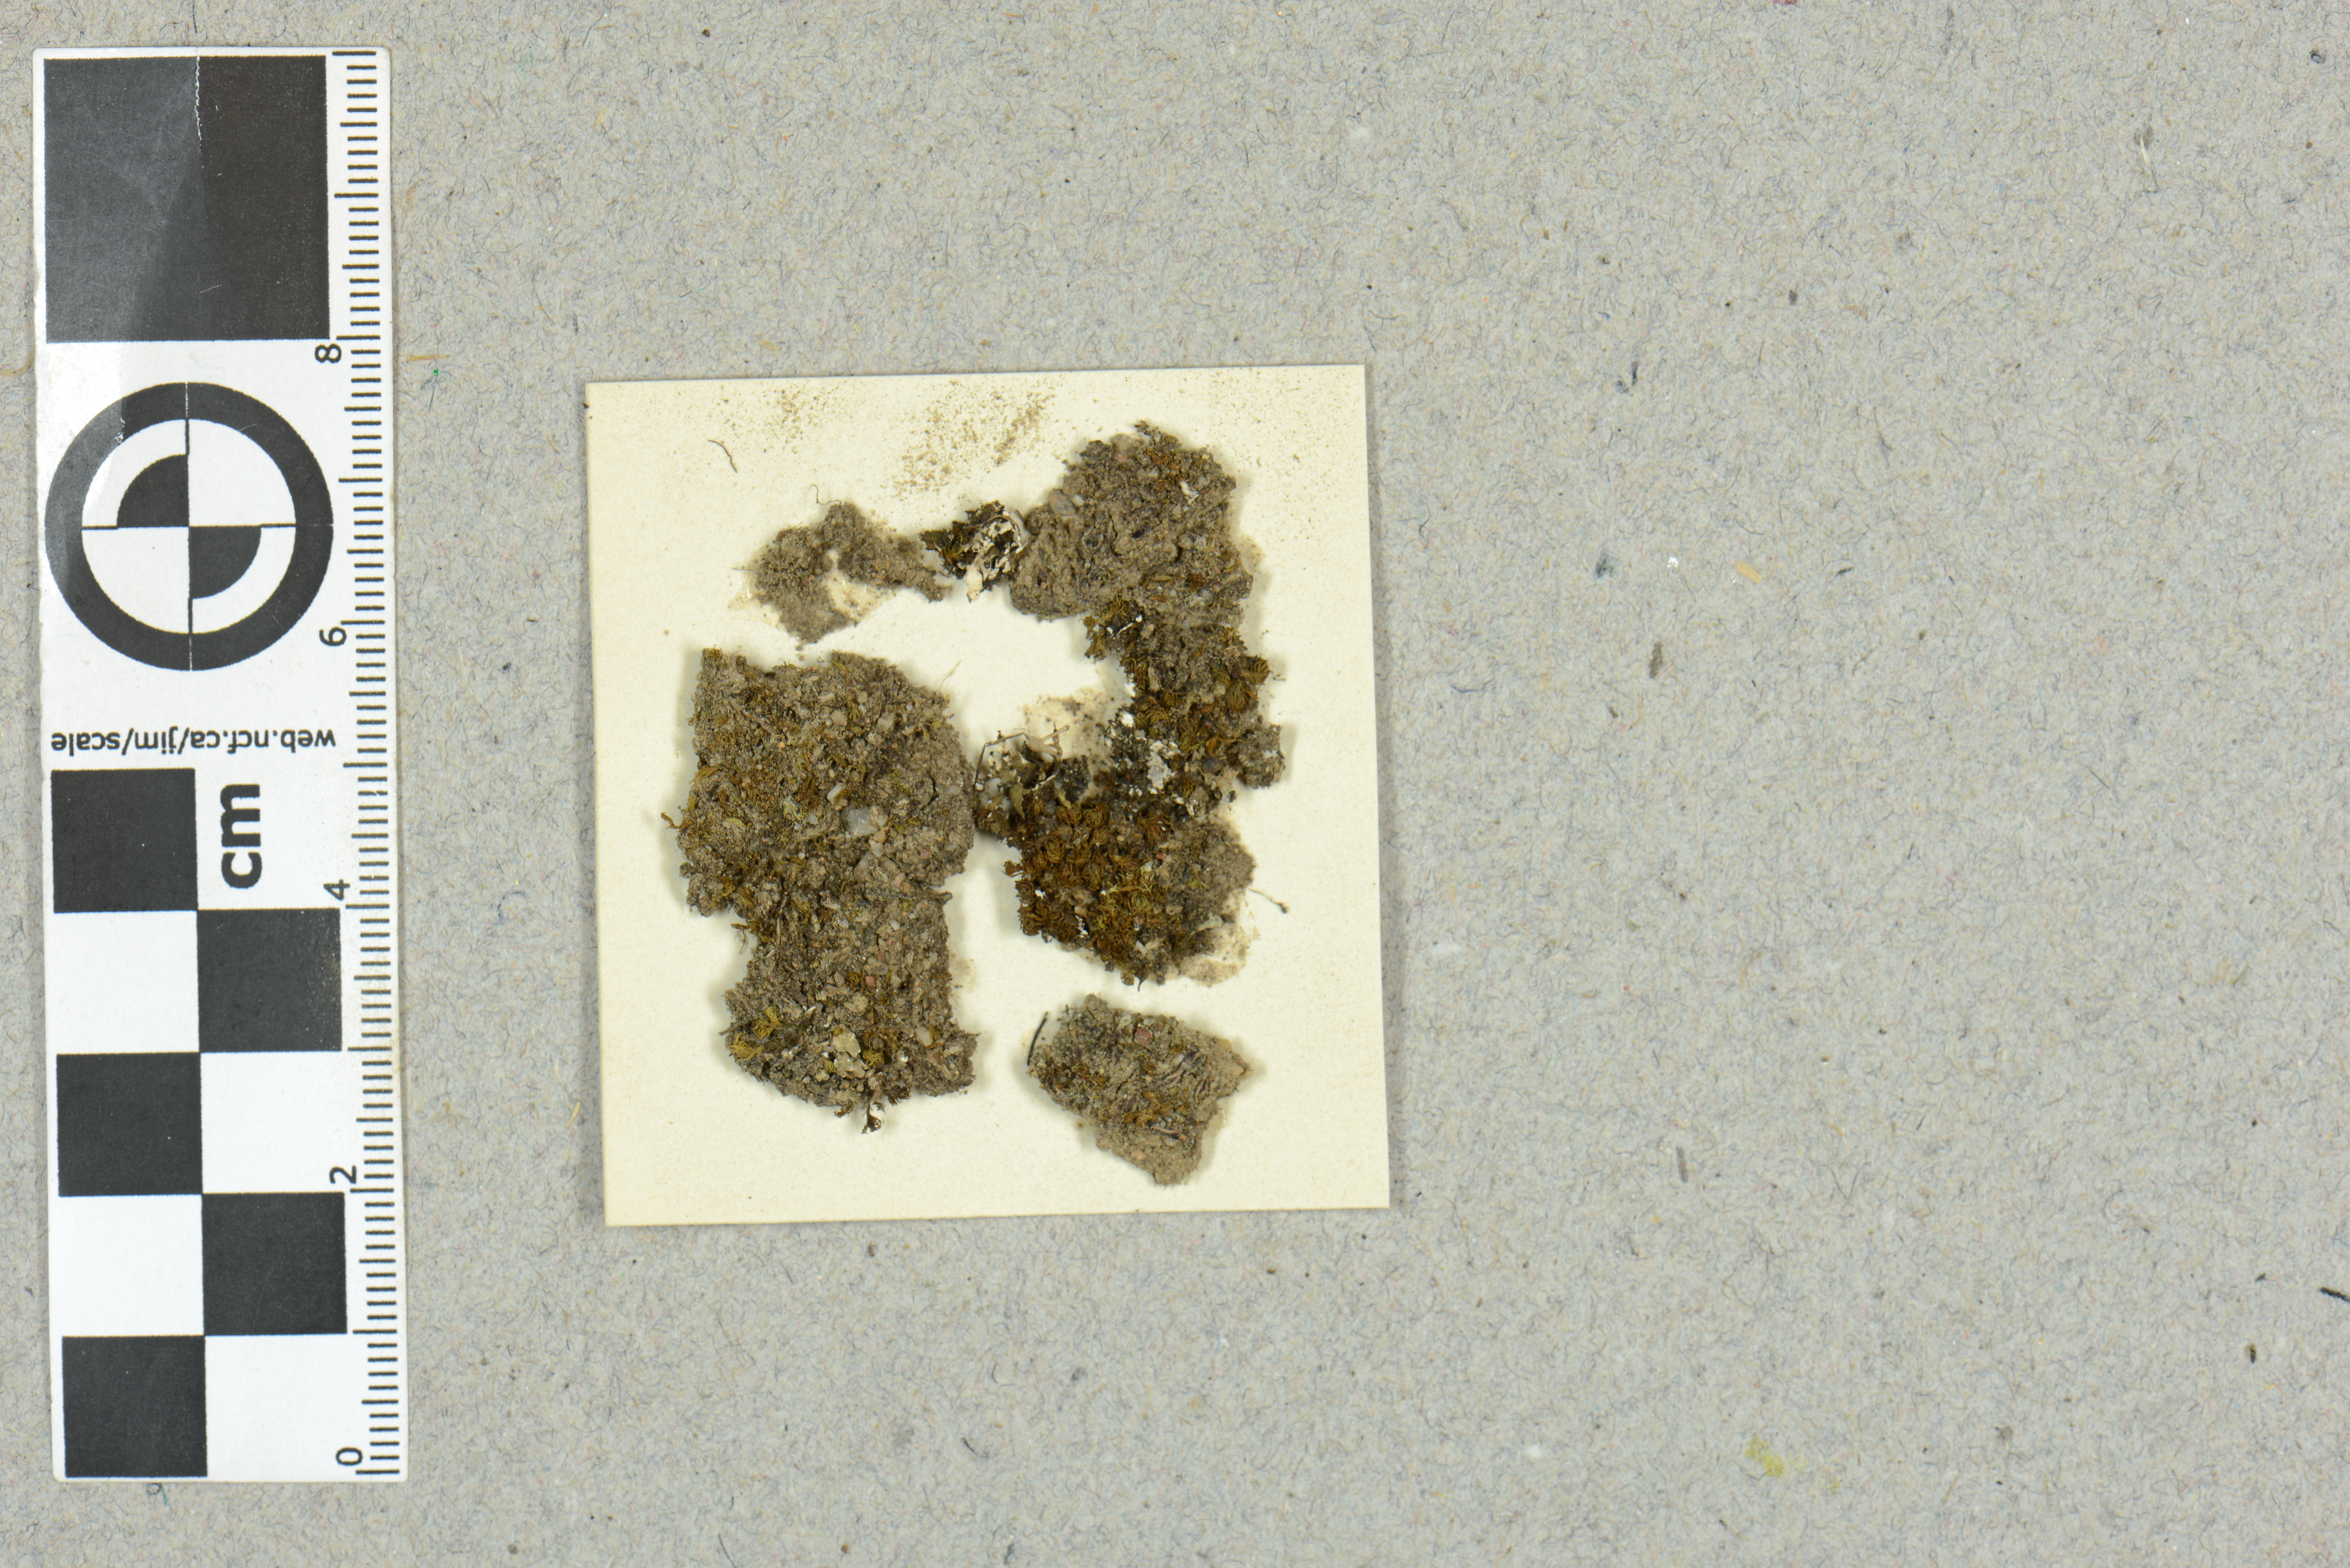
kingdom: Plantae
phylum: Marchantiophyta
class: Marchantiopsida
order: Marchantiales
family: Ricciaceae
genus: Riccia
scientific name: Riccia gougetiana
